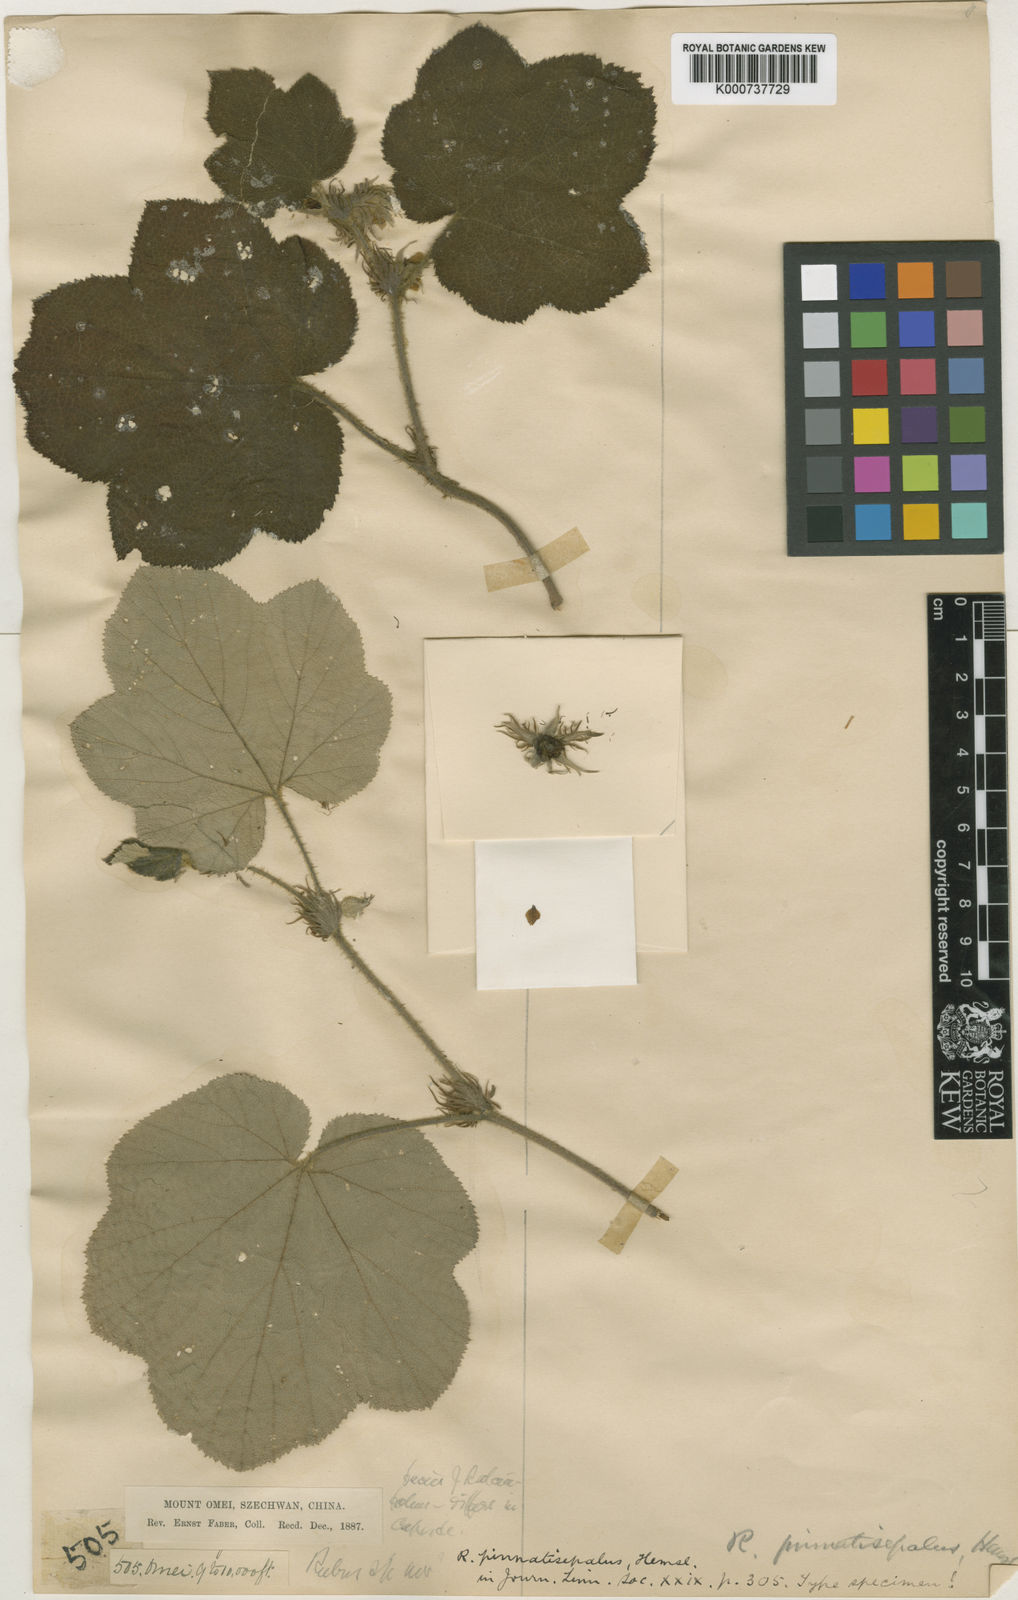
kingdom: Plantae
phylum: Tracheophyta
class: Magnoliopsida
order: Rosales
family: Rosaceae
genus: Rubus
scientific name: Rubus pinnatisepalus
